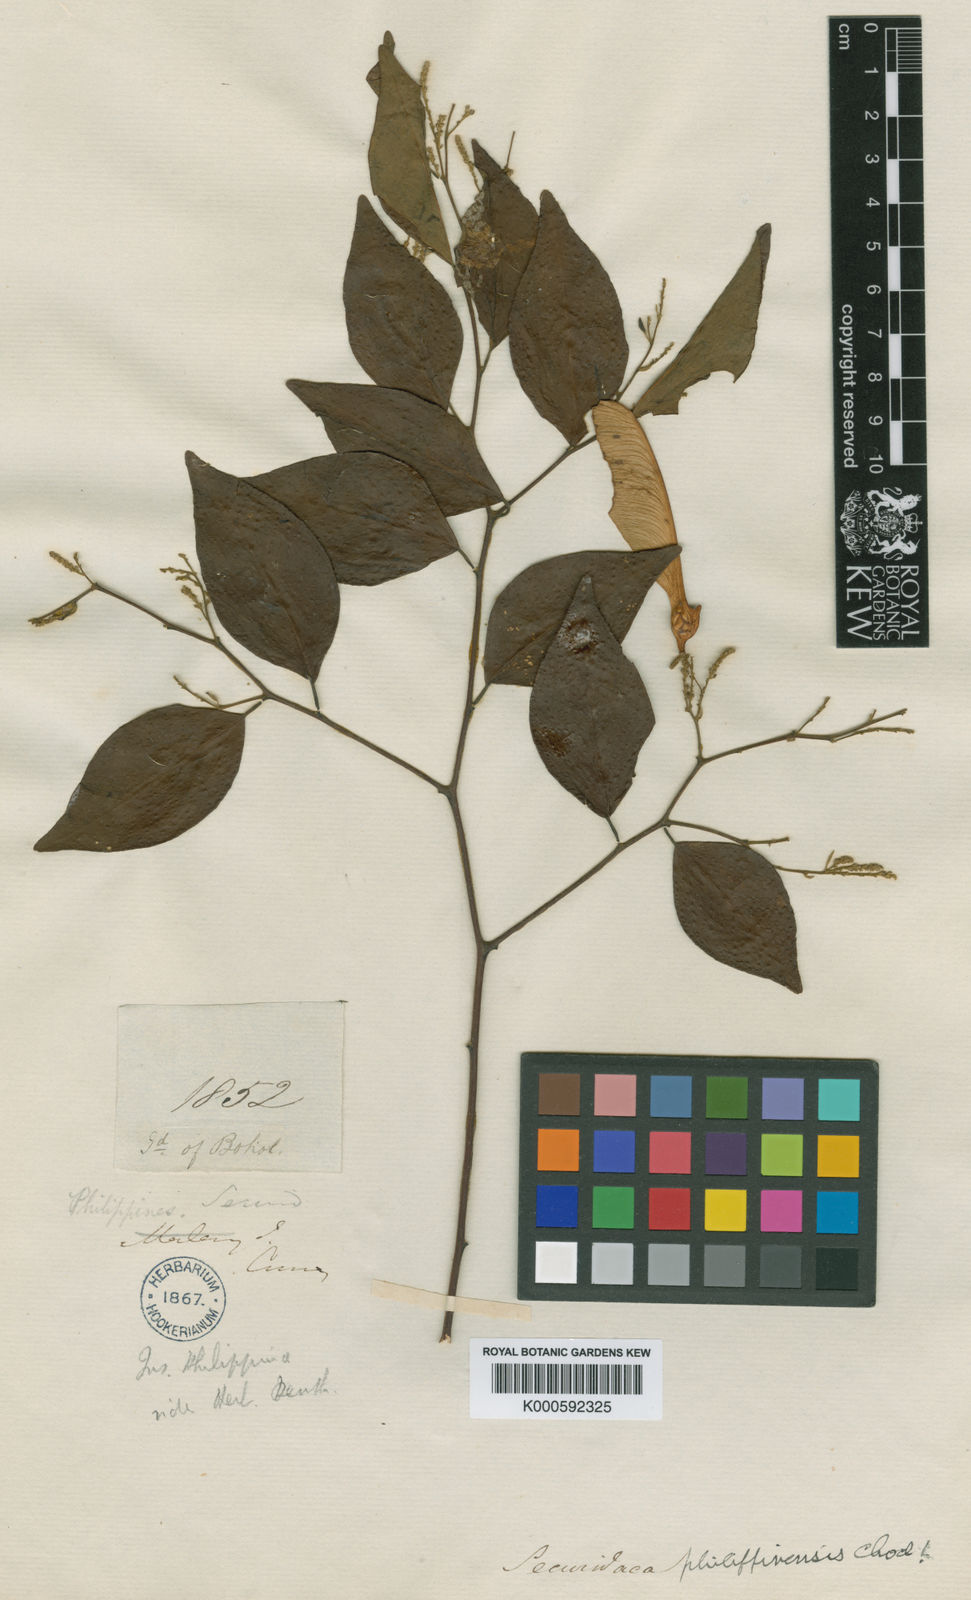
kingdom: Plantae
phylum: Tracheophyta
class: Magnoliopsida
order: Fabales
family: Polygalaceae
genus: Securidaca
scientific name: Securidaca philippinensis
